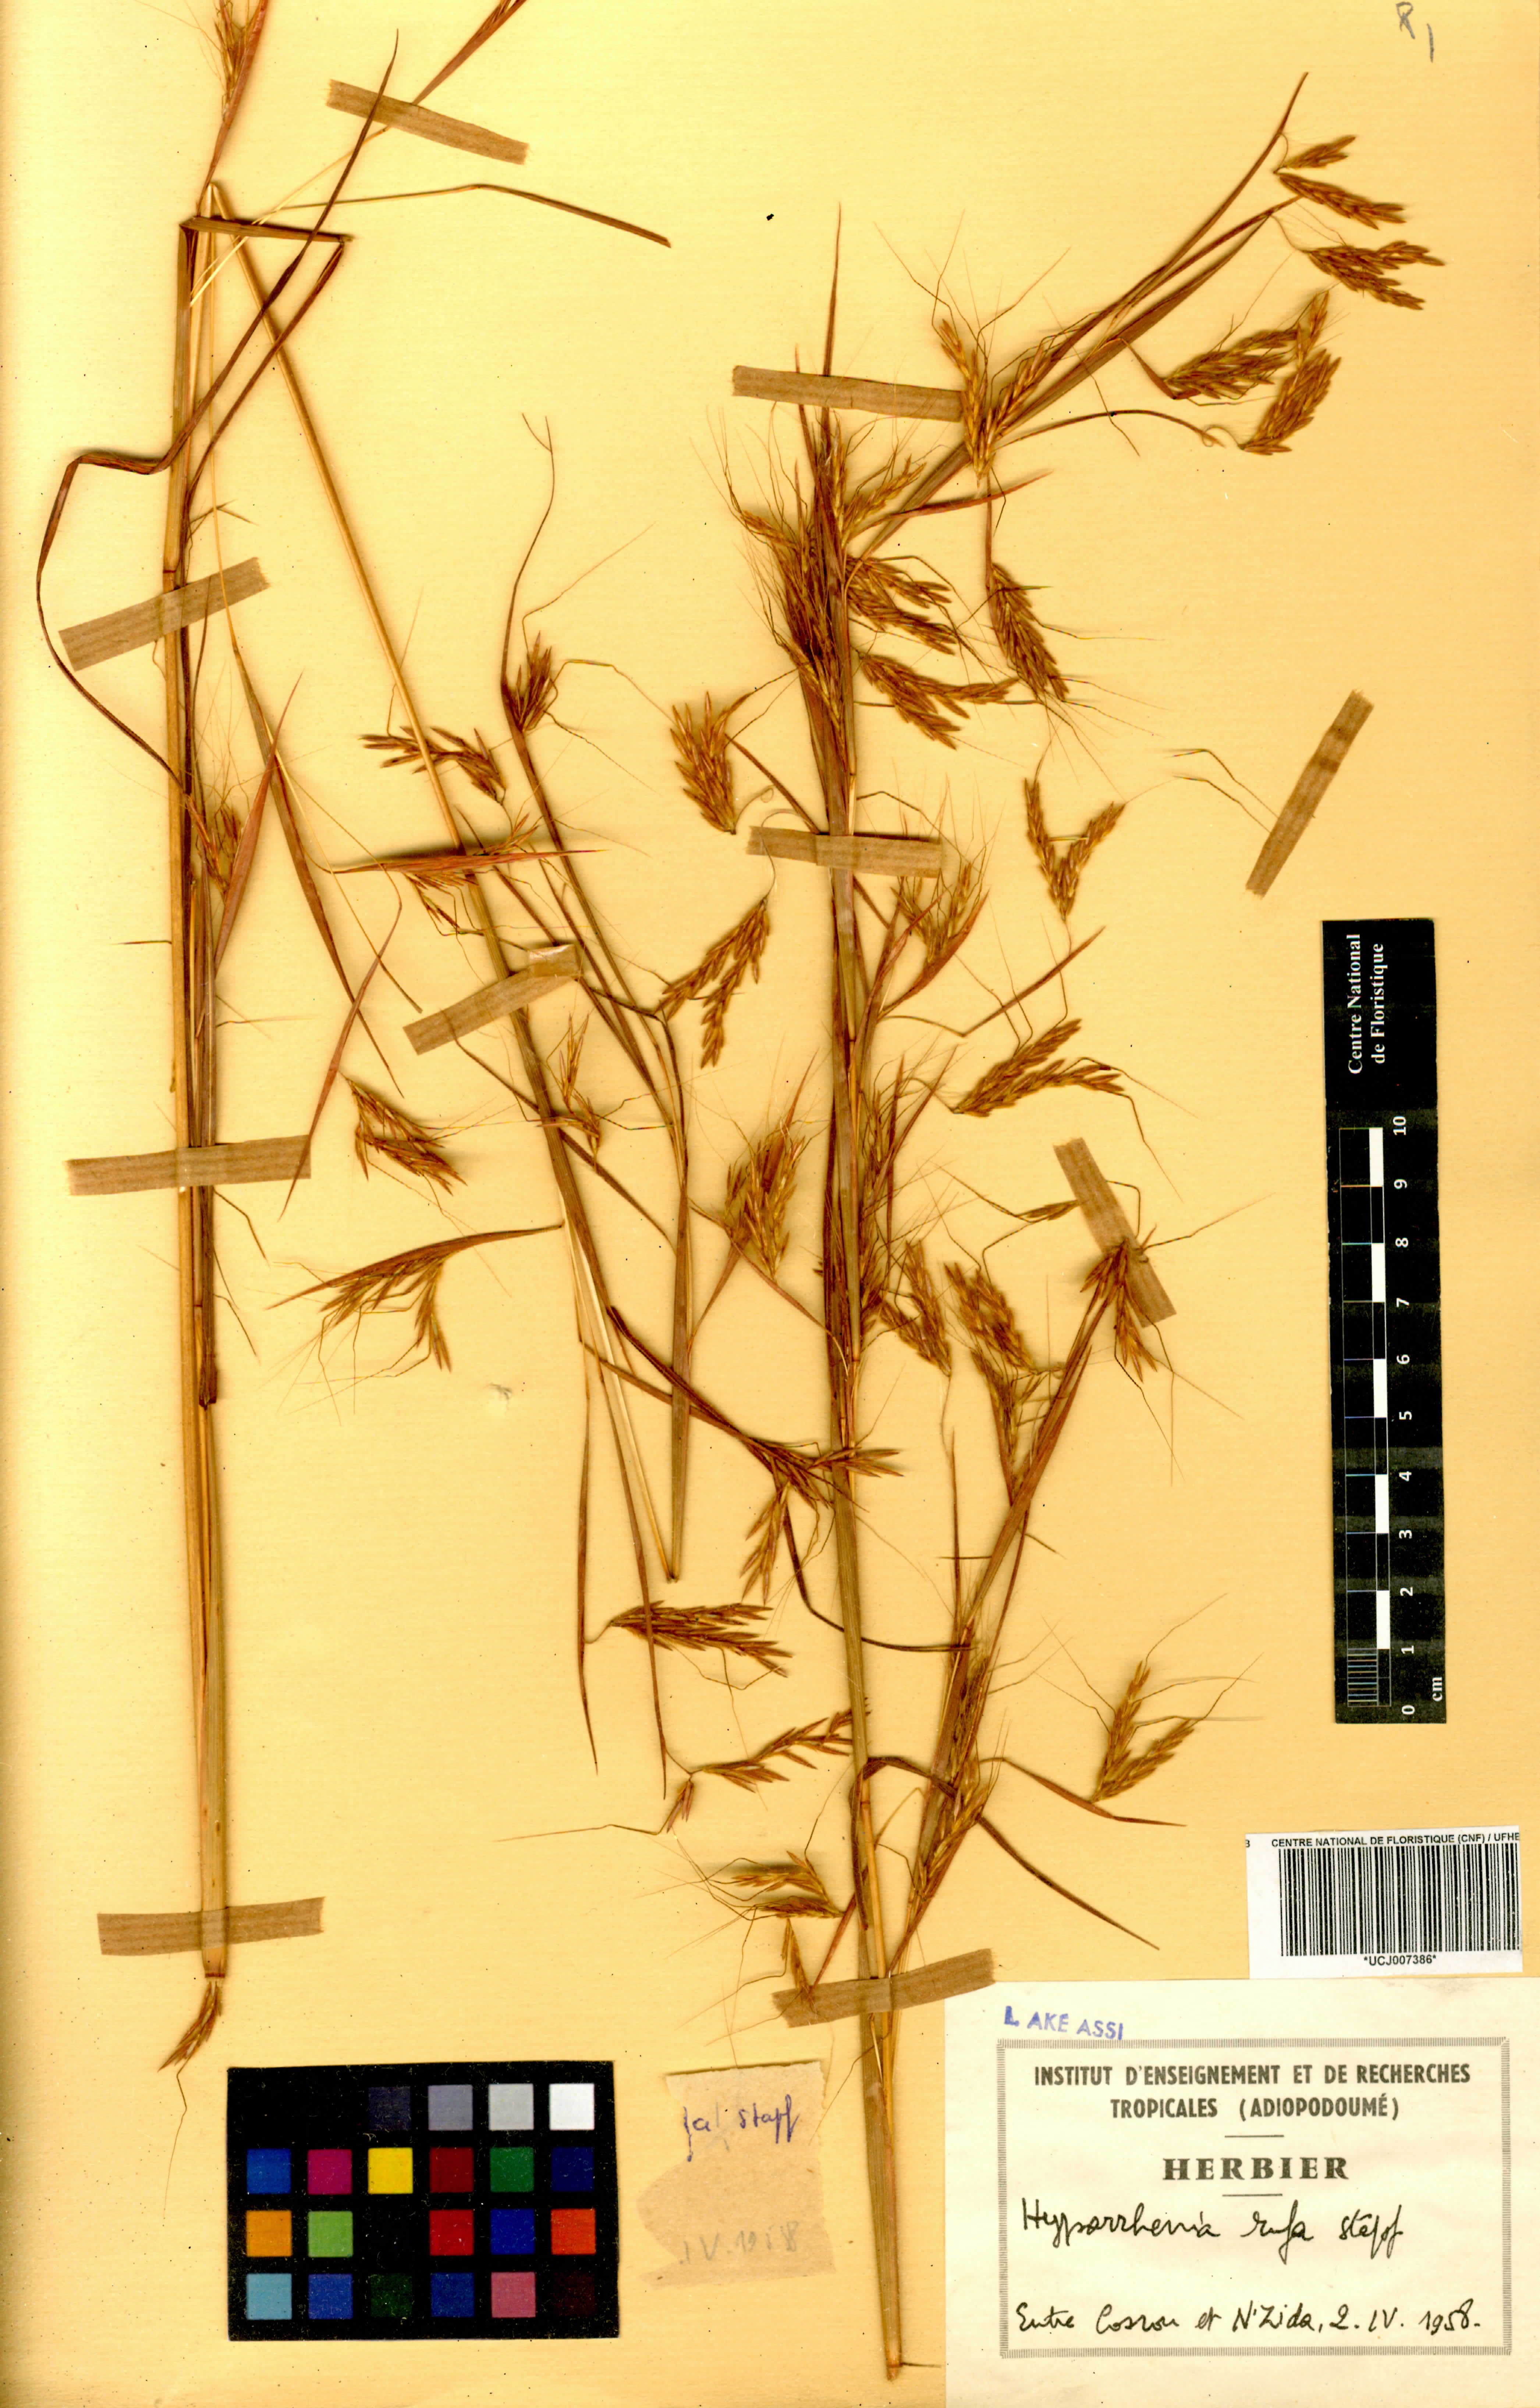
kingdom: Plantae
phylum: Tracheophyta
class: Liliopsida
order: Poales
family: Poaceae
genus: Hyparrhenia
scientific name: Hyparrhenia rufa
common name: Jaraguagrass
